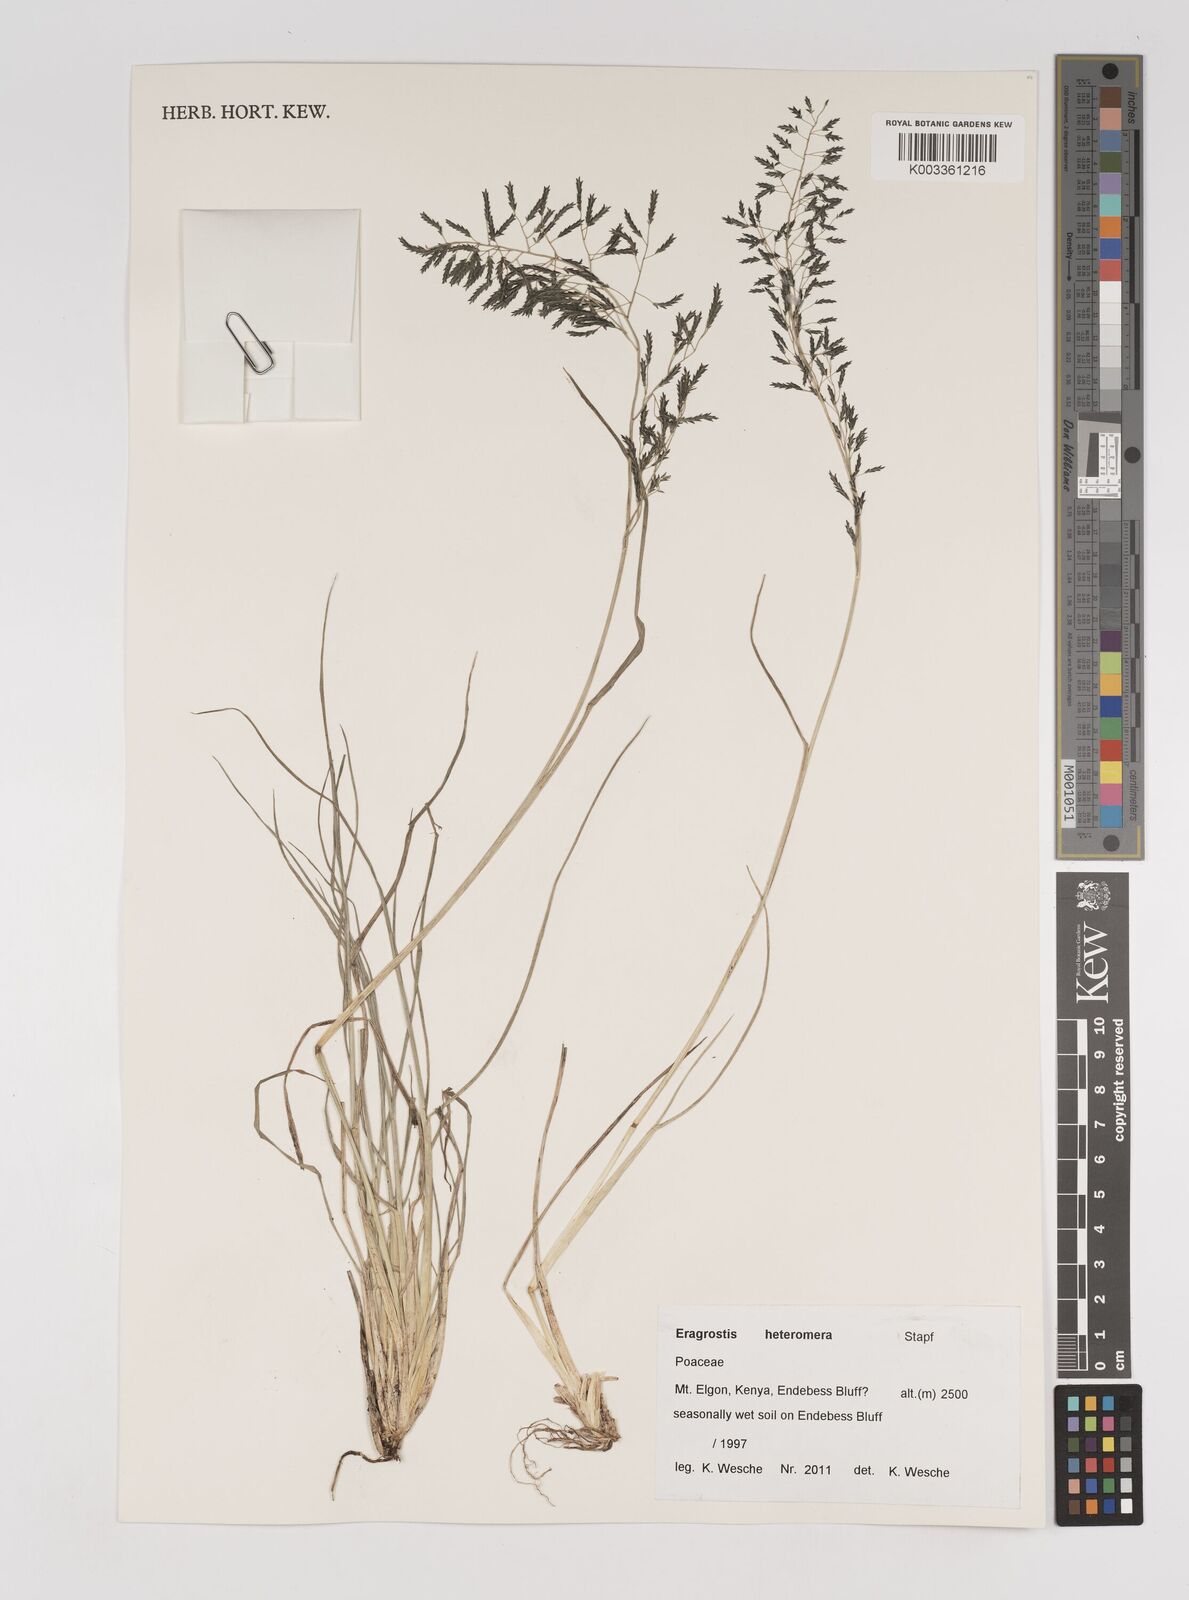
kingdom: Plantae
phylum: Tracheophyta
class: Liliopsida
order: Poales
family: Poaceae
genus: Eragrostis
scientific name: Eragrostis heteromera
